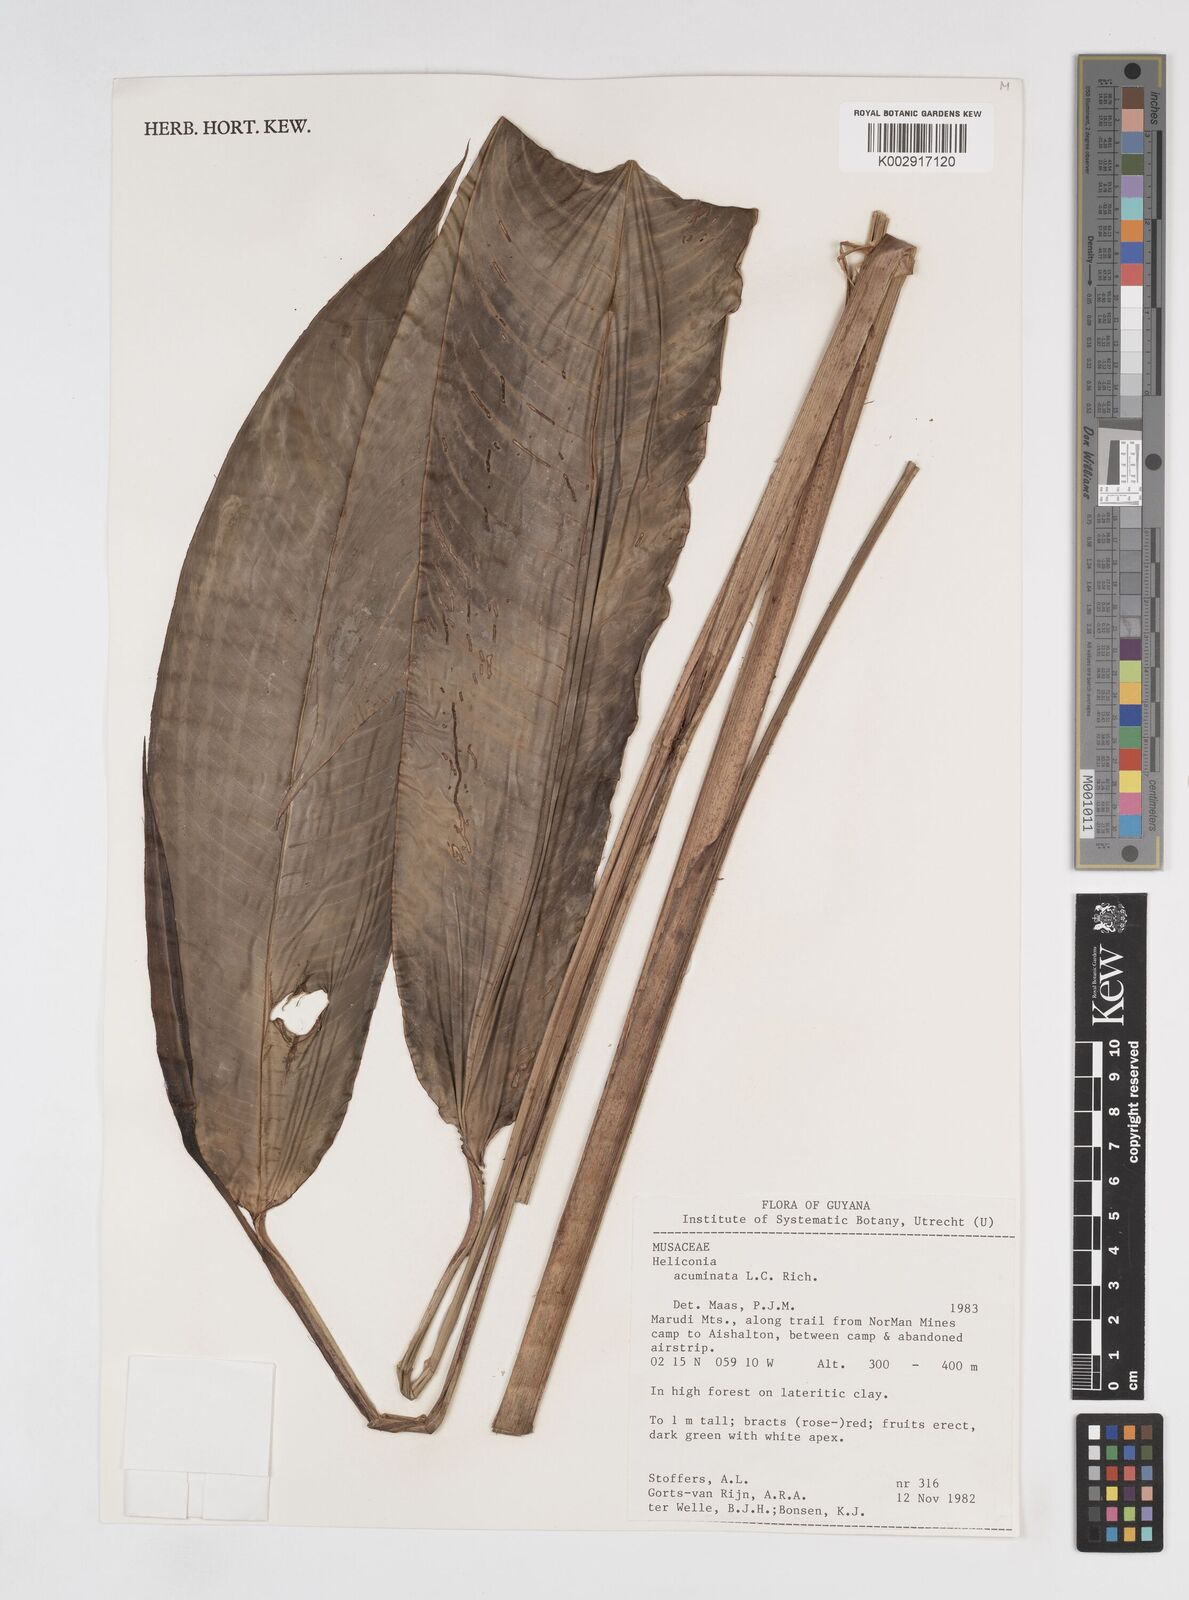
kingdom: Plantae
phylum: Tracheophyta
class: Liliopsida
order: Zingiberales
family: Heliconiaceae
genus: Heliconia
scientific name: Heliconia acuminata
